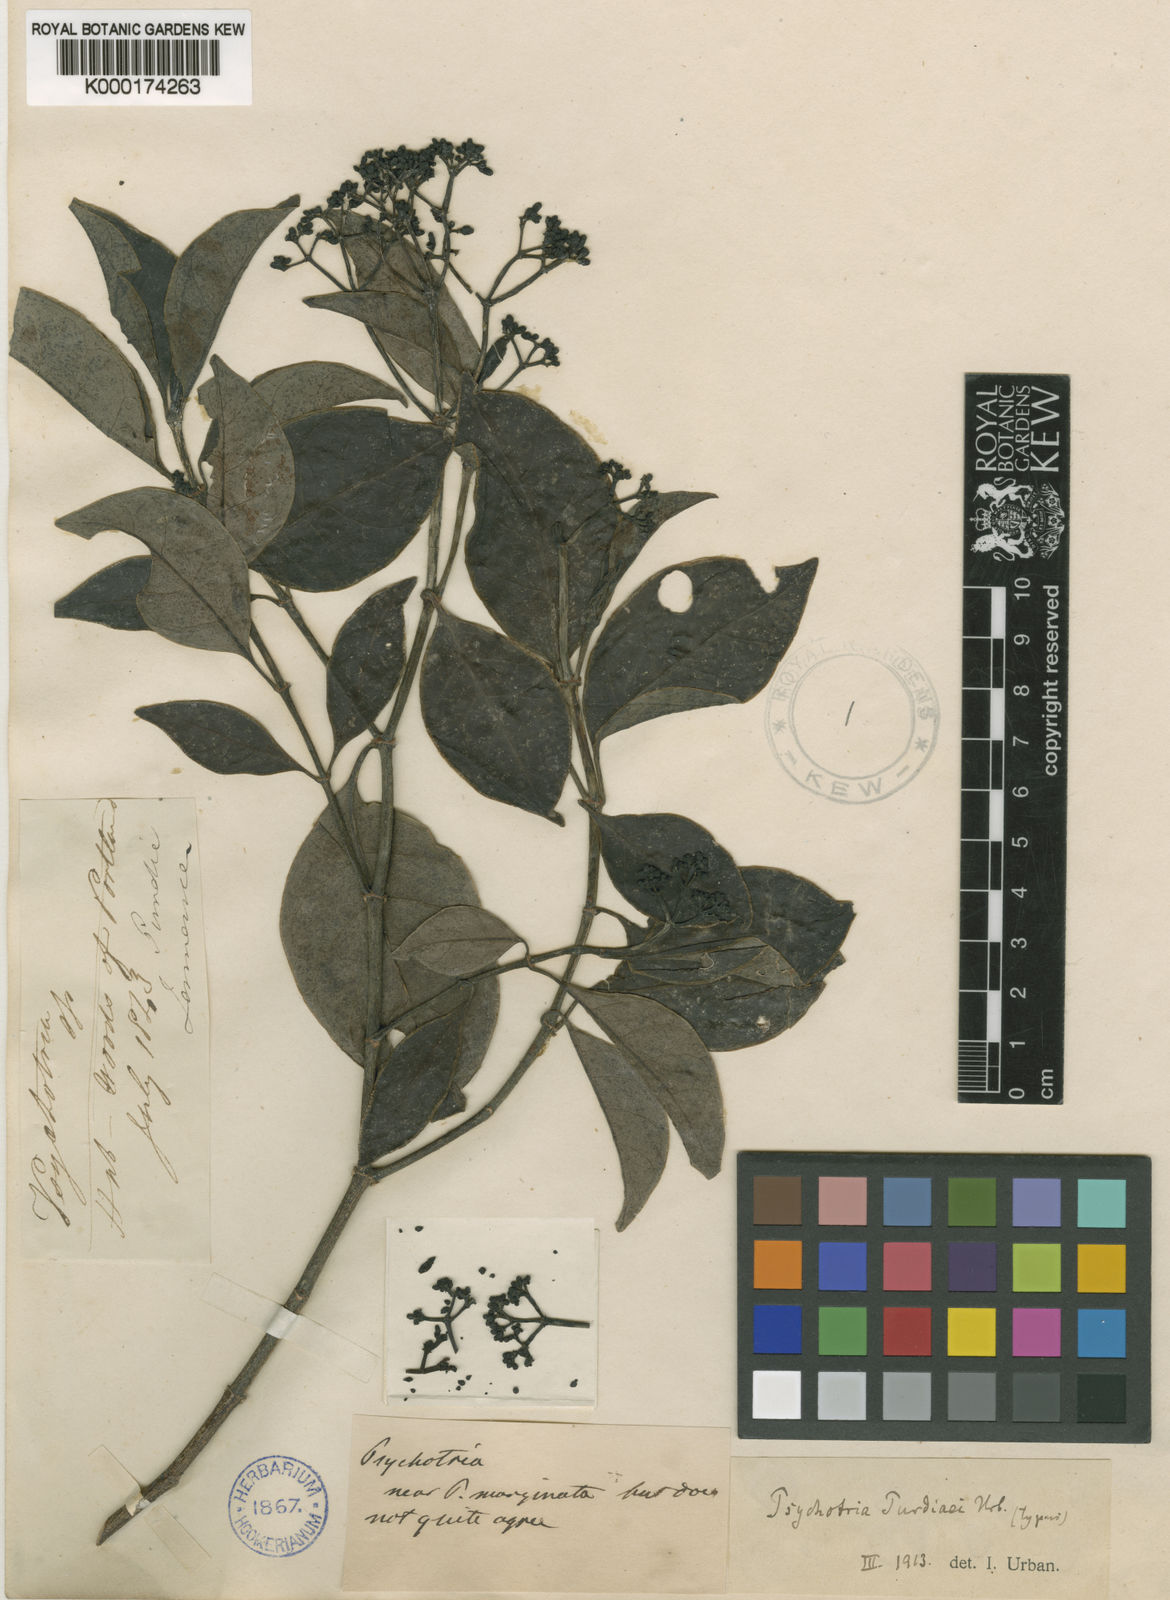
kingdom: Plantae
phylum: Tracheophyta
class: Magnoliopsida
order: Gentianales
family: Rubiaceae
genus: Psychotria
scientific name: Psychotria purdiaei
